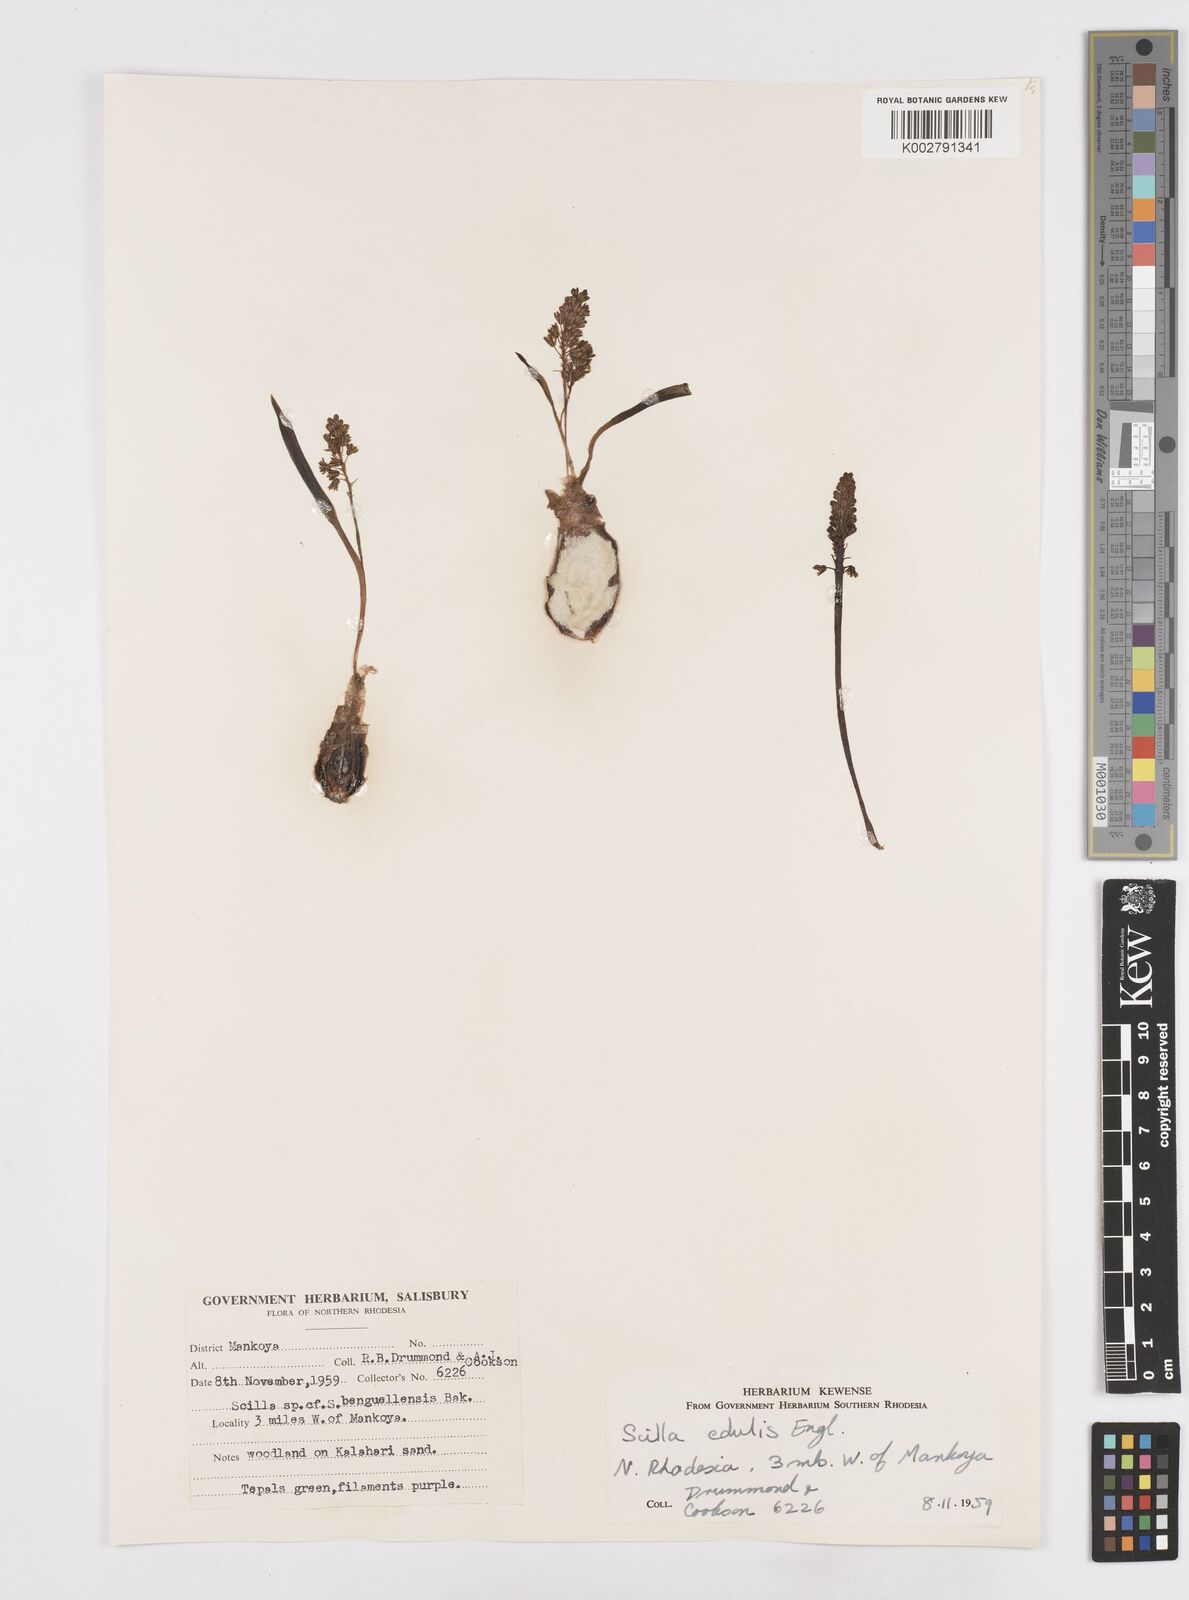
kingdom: Plantae
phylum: Tracheophyta
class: Liliopsida
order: Asparagales
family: Asparagaceae
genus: Ledebouria
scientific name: Ledebouria edulis
